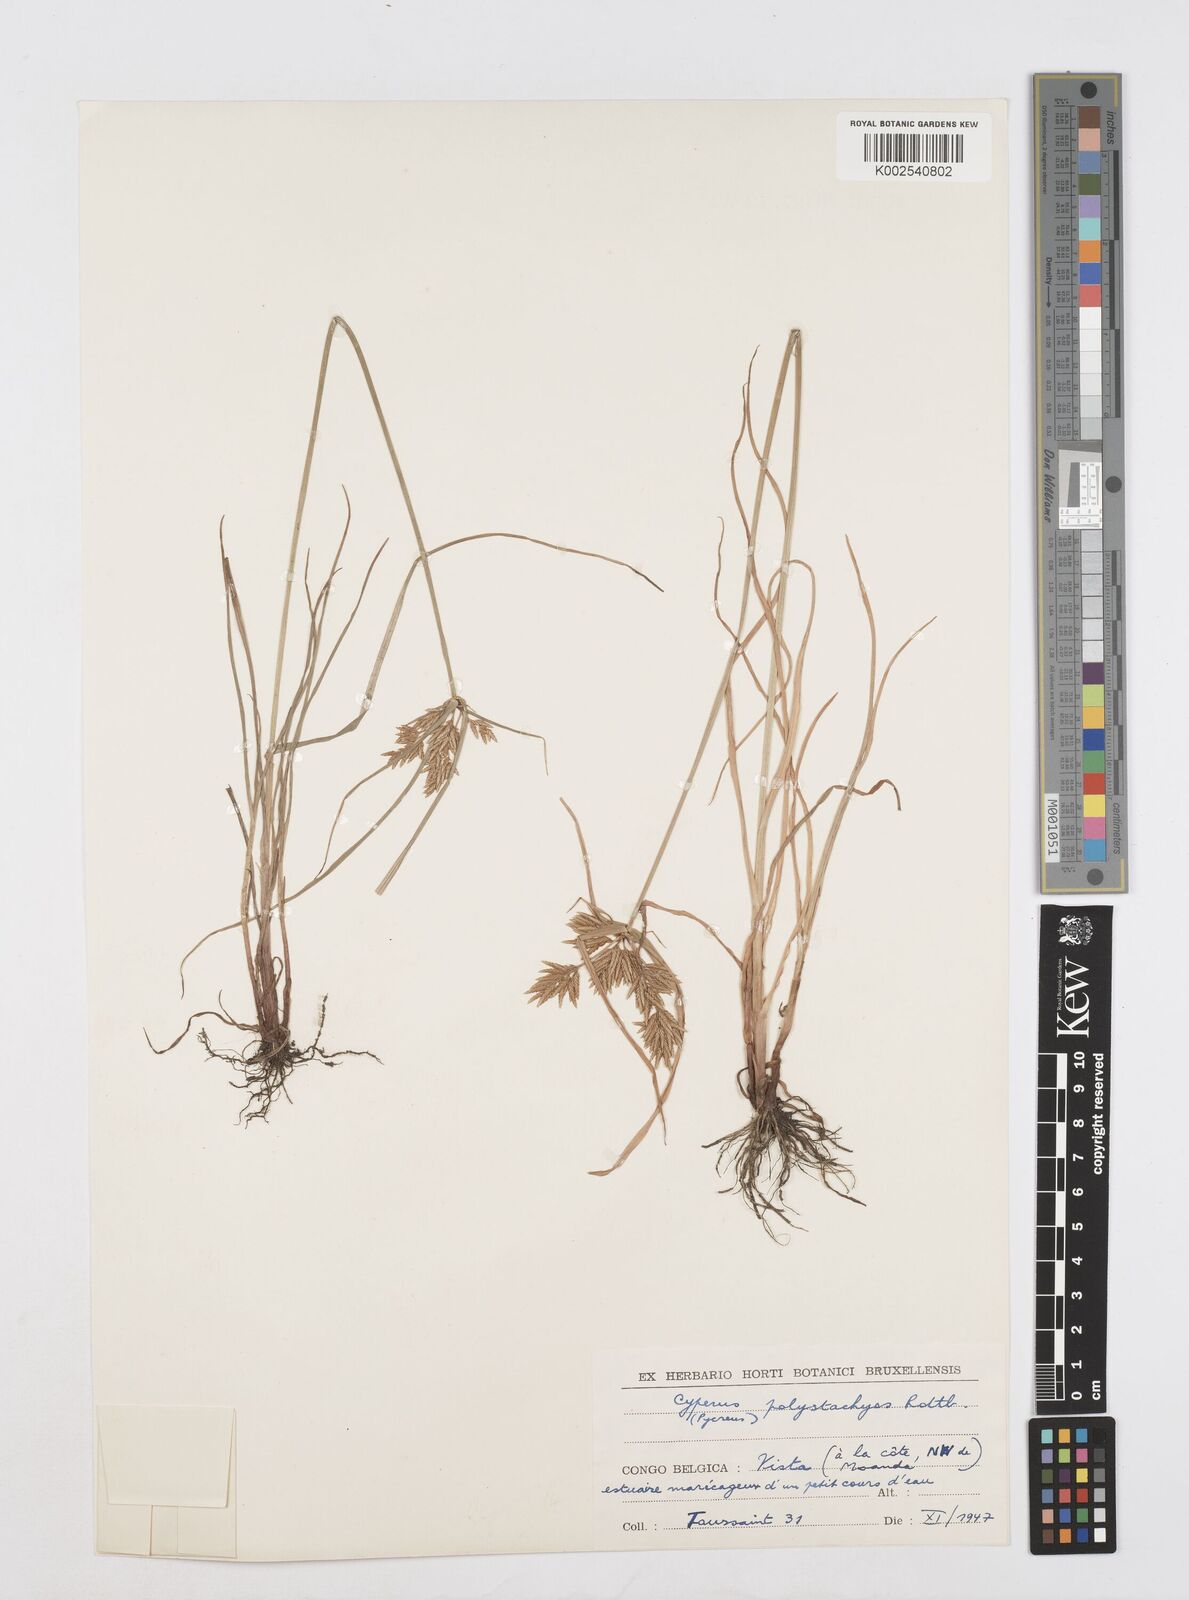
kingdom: Plantae
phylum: Tracheophyta
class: Liliopsida
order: Poales
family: Cyperaceae
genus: Cyperus
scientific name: Cyperus polystachyos
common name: Bunchy flat sedge
